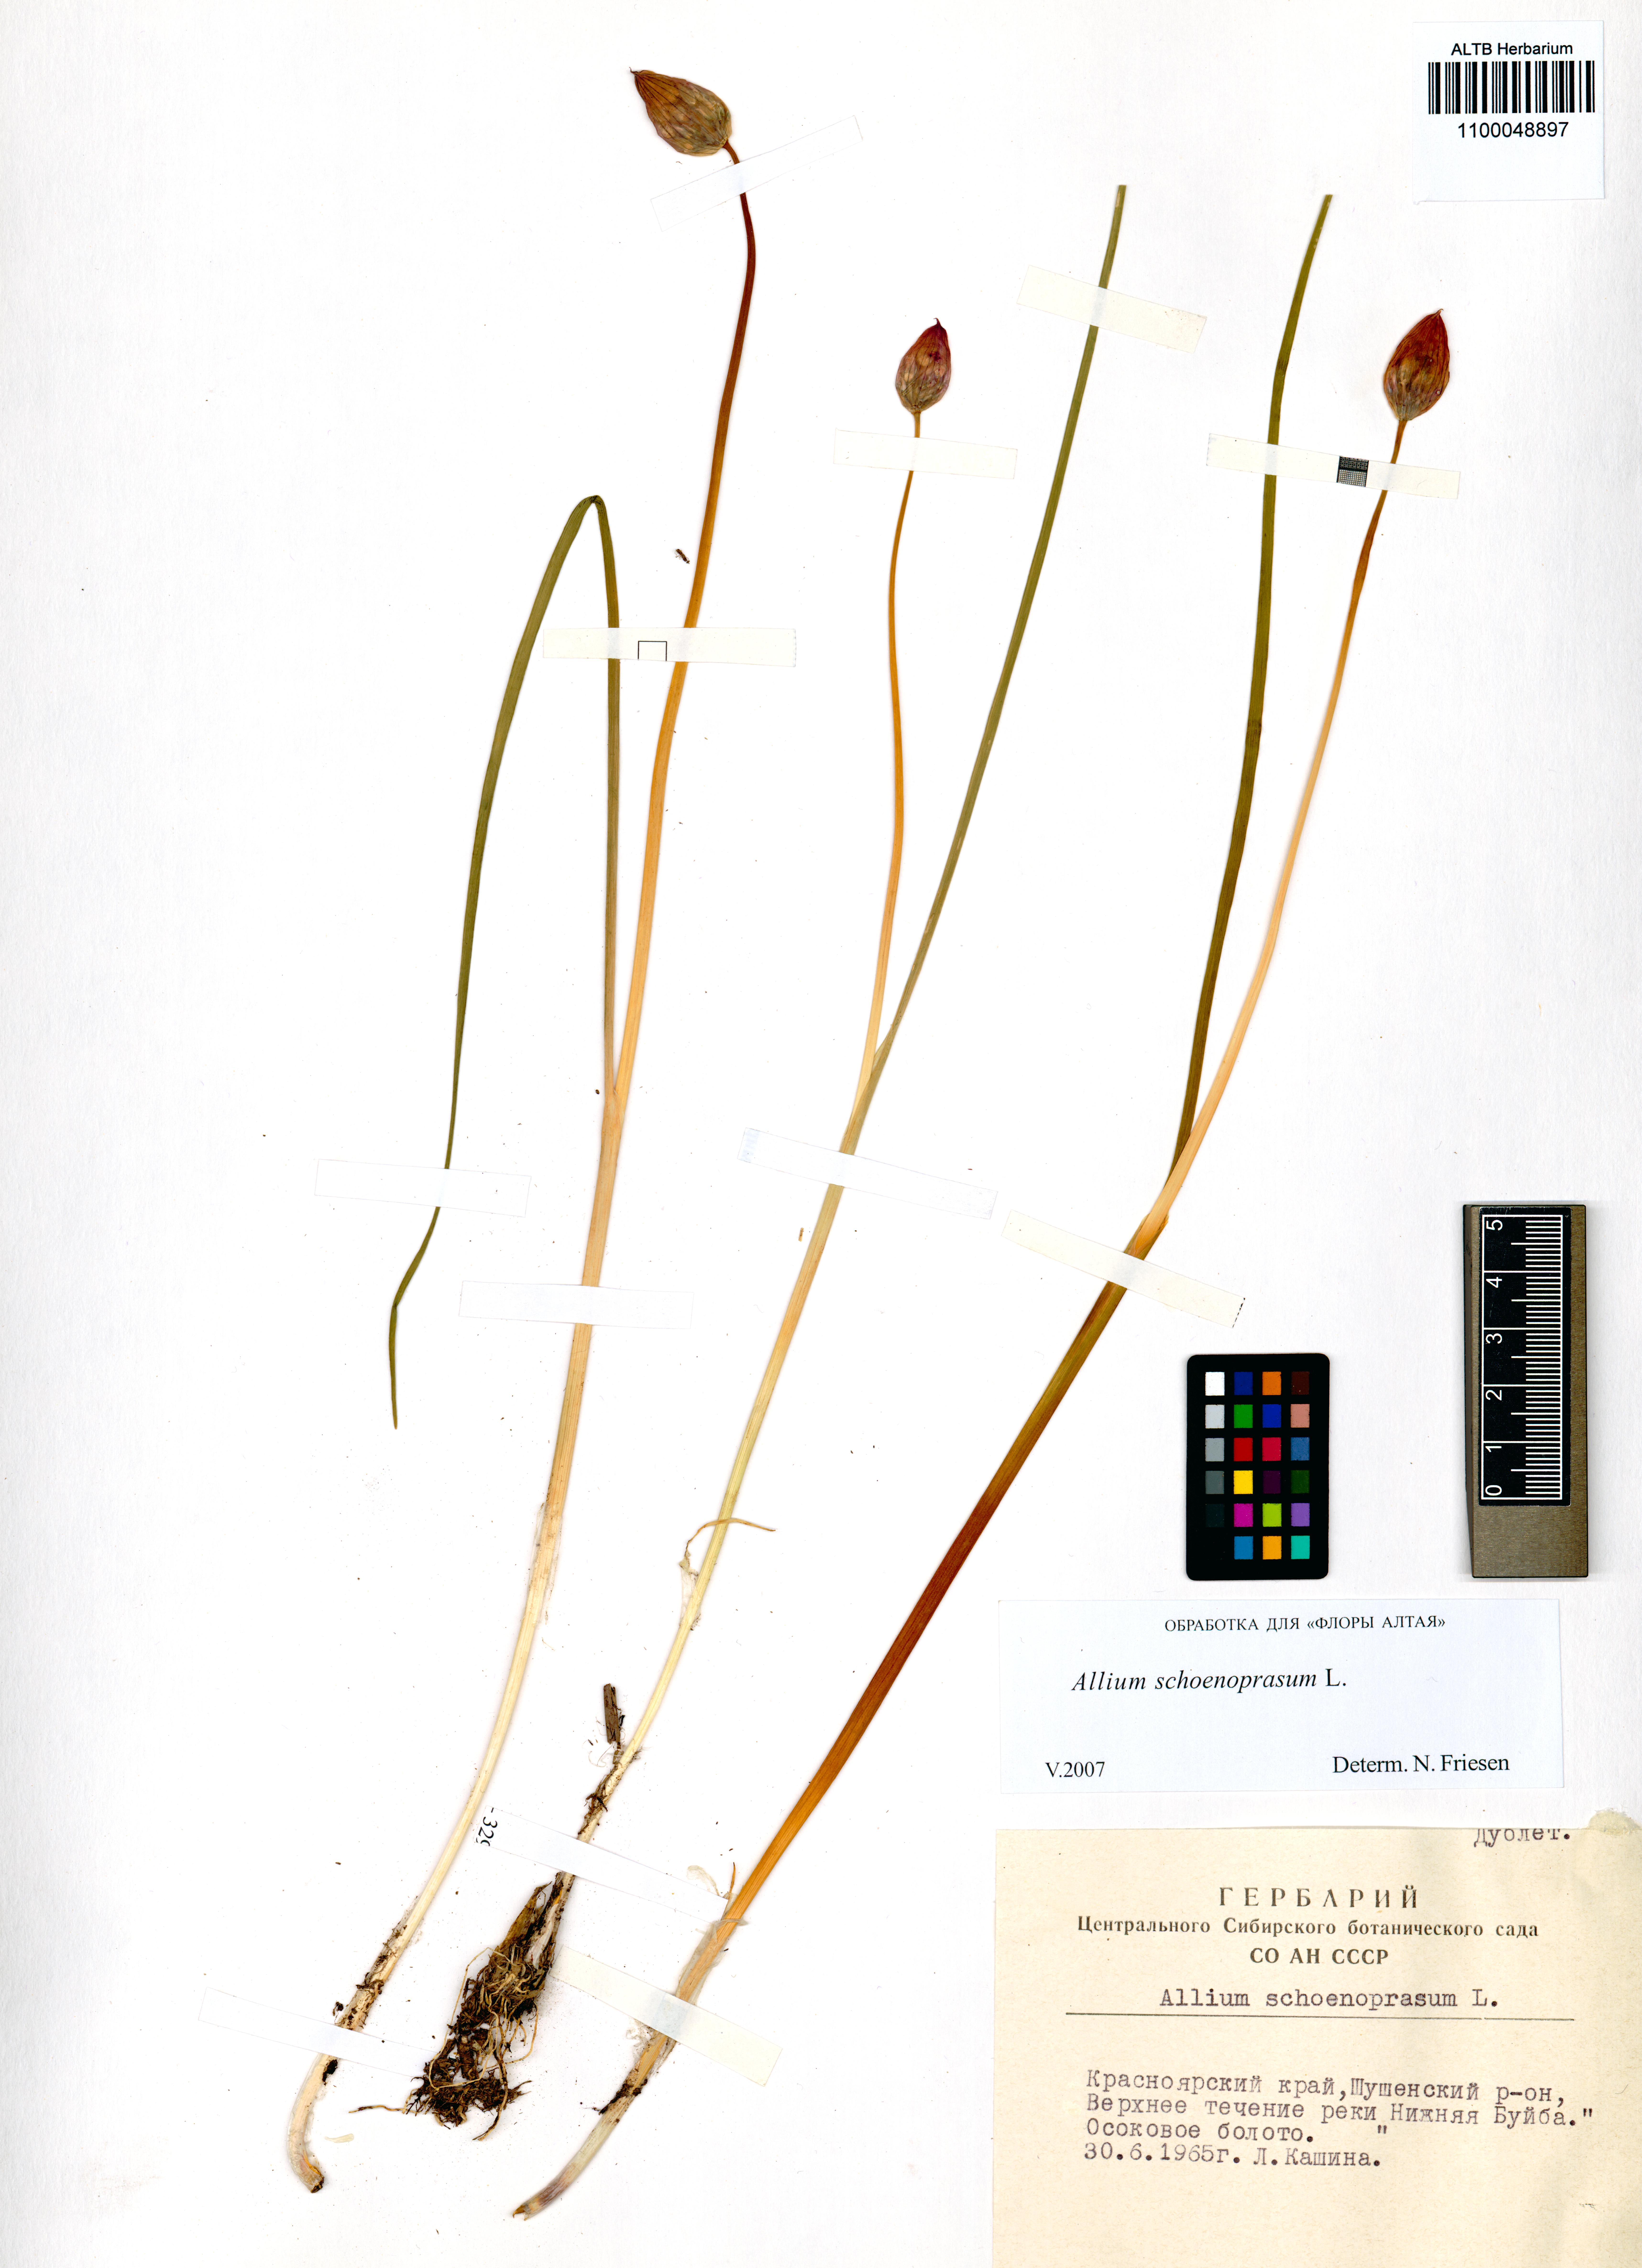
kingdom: Plantae
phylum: Tracheophyta
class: Liliopsida
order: Asparagales
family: Amaryllidaceae
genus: Allium
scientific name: Allium schoenoprasum
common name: Chives
